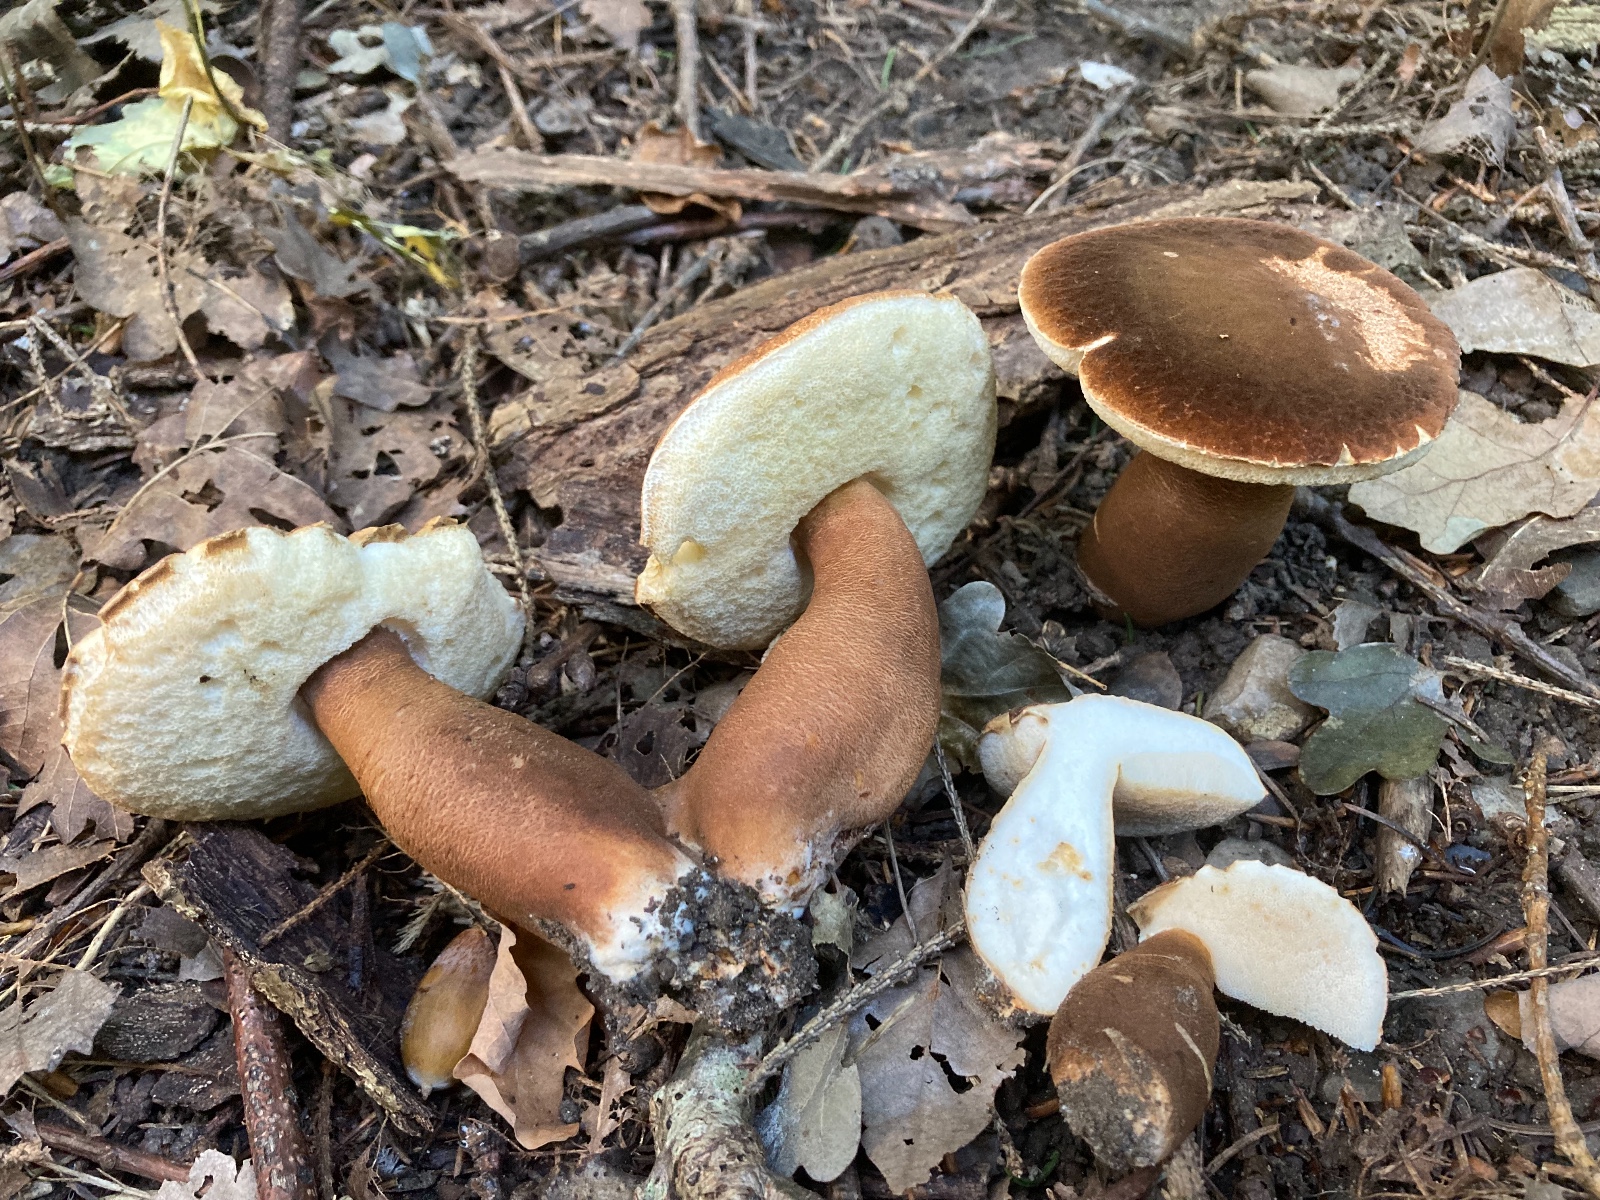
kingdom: Fungi
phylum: Basidiomycota
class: Agaricomycetes
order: Boletales
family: Gyroporaceae
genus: Gyroporus
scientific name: Gyroporus castaneus
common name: kastanie-kammerrørhat
